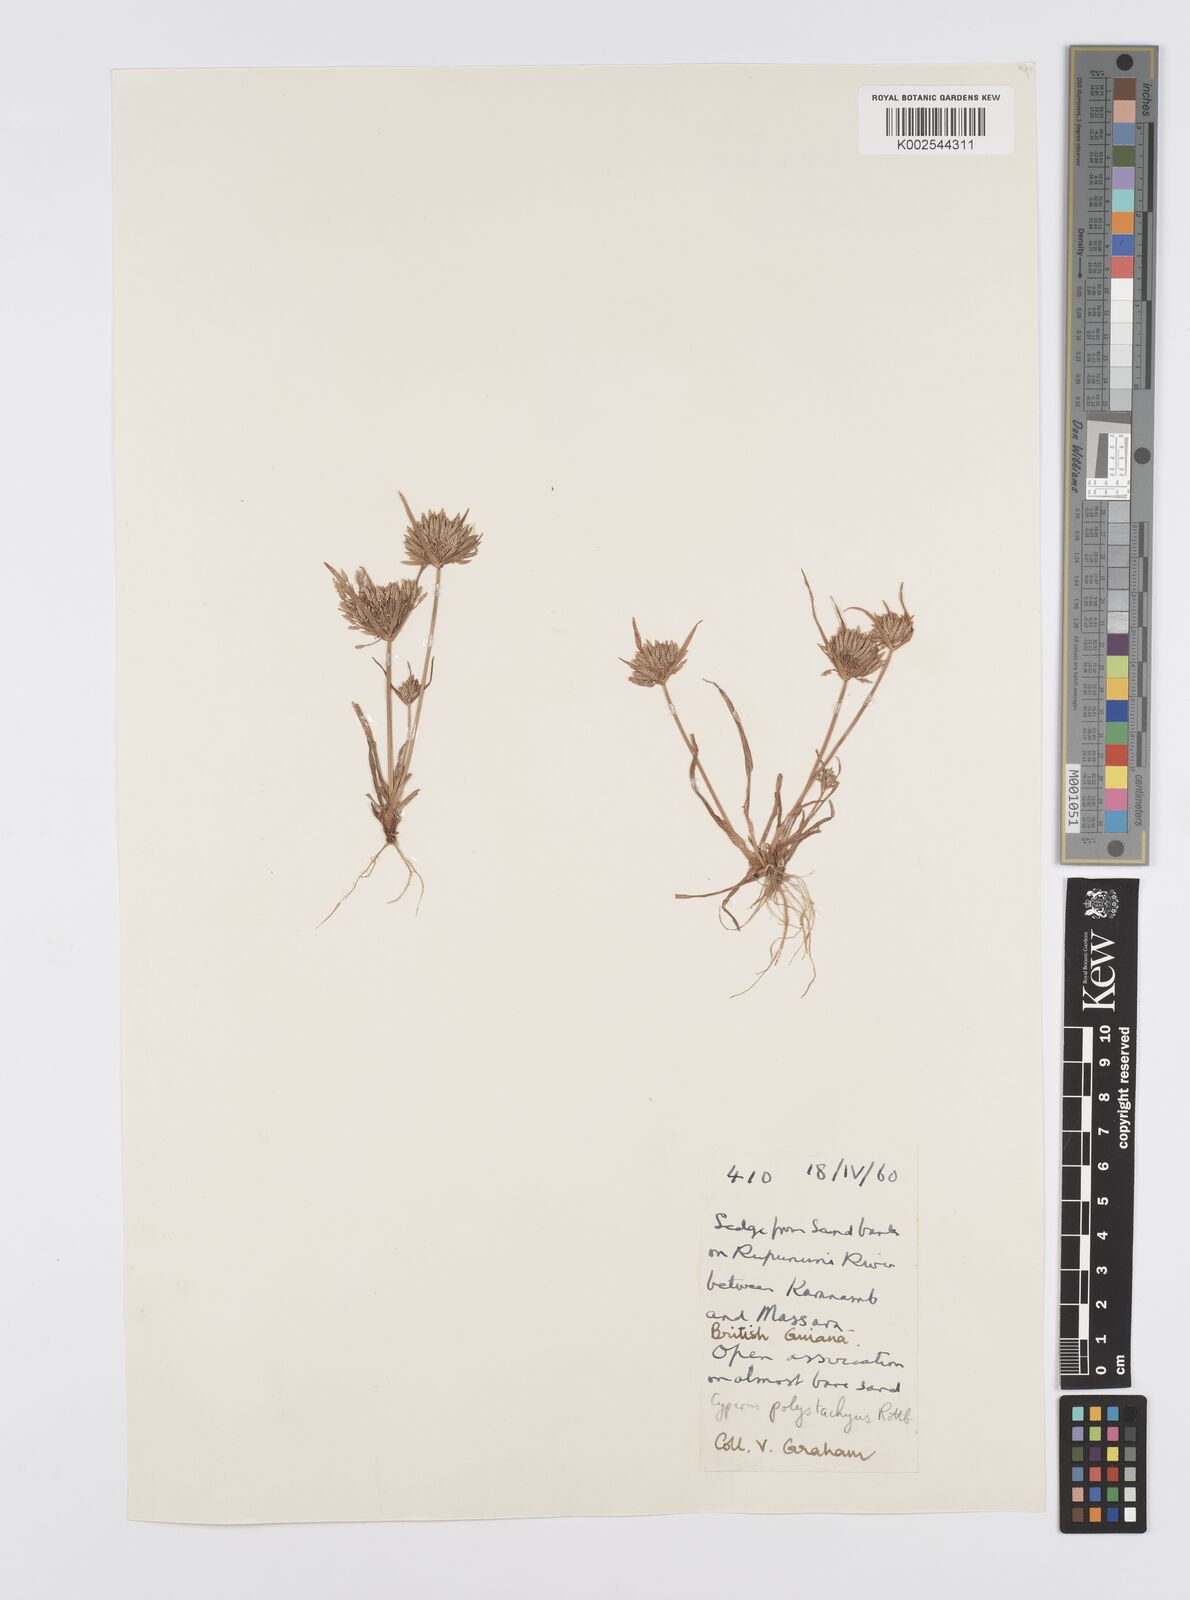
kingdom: Plantae
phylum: Tracheophyta
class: Liliopsida
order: Poales
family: Cyperaceae
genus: Cyperus
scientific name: Cyperus polystachyos
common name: Bunchy flat sedge
